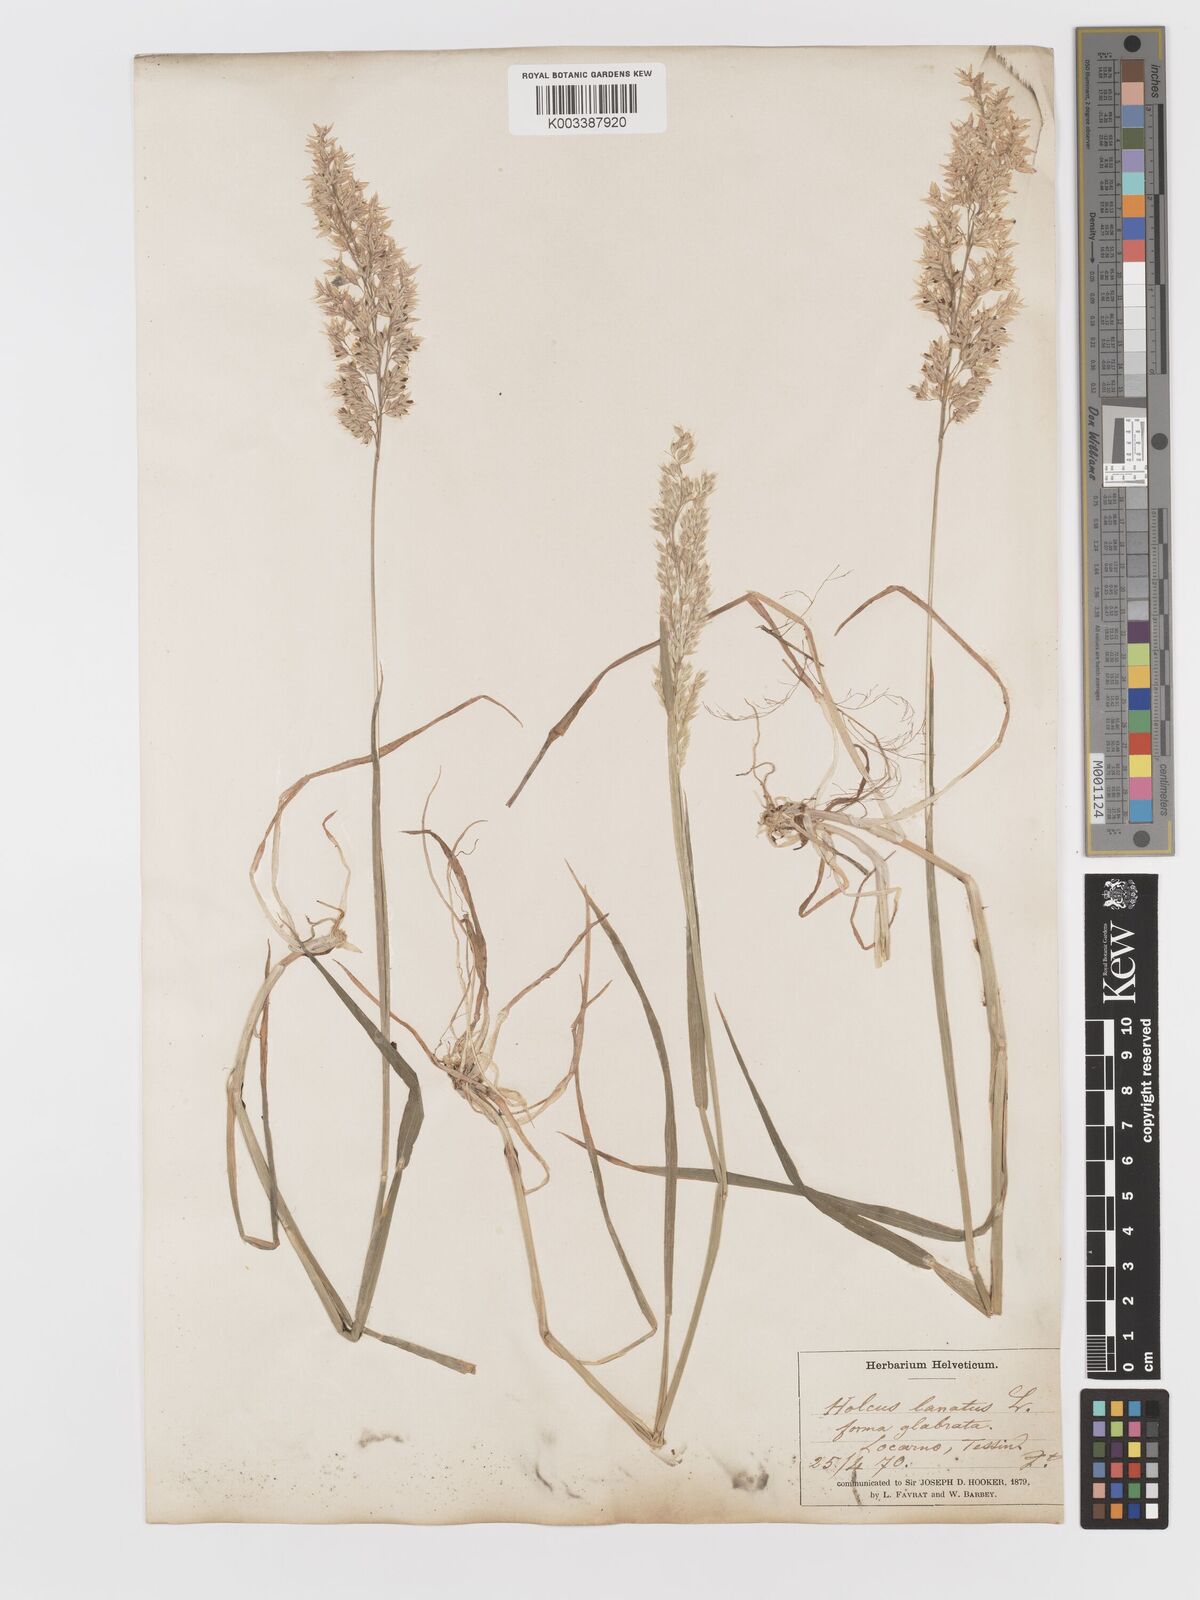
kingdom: Plantae
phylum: Tracheophyta
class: Liliopsida
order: Poales
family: Poaceae
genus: Holcus
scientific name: Holcus lanatus
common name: Yorkshire-fog
